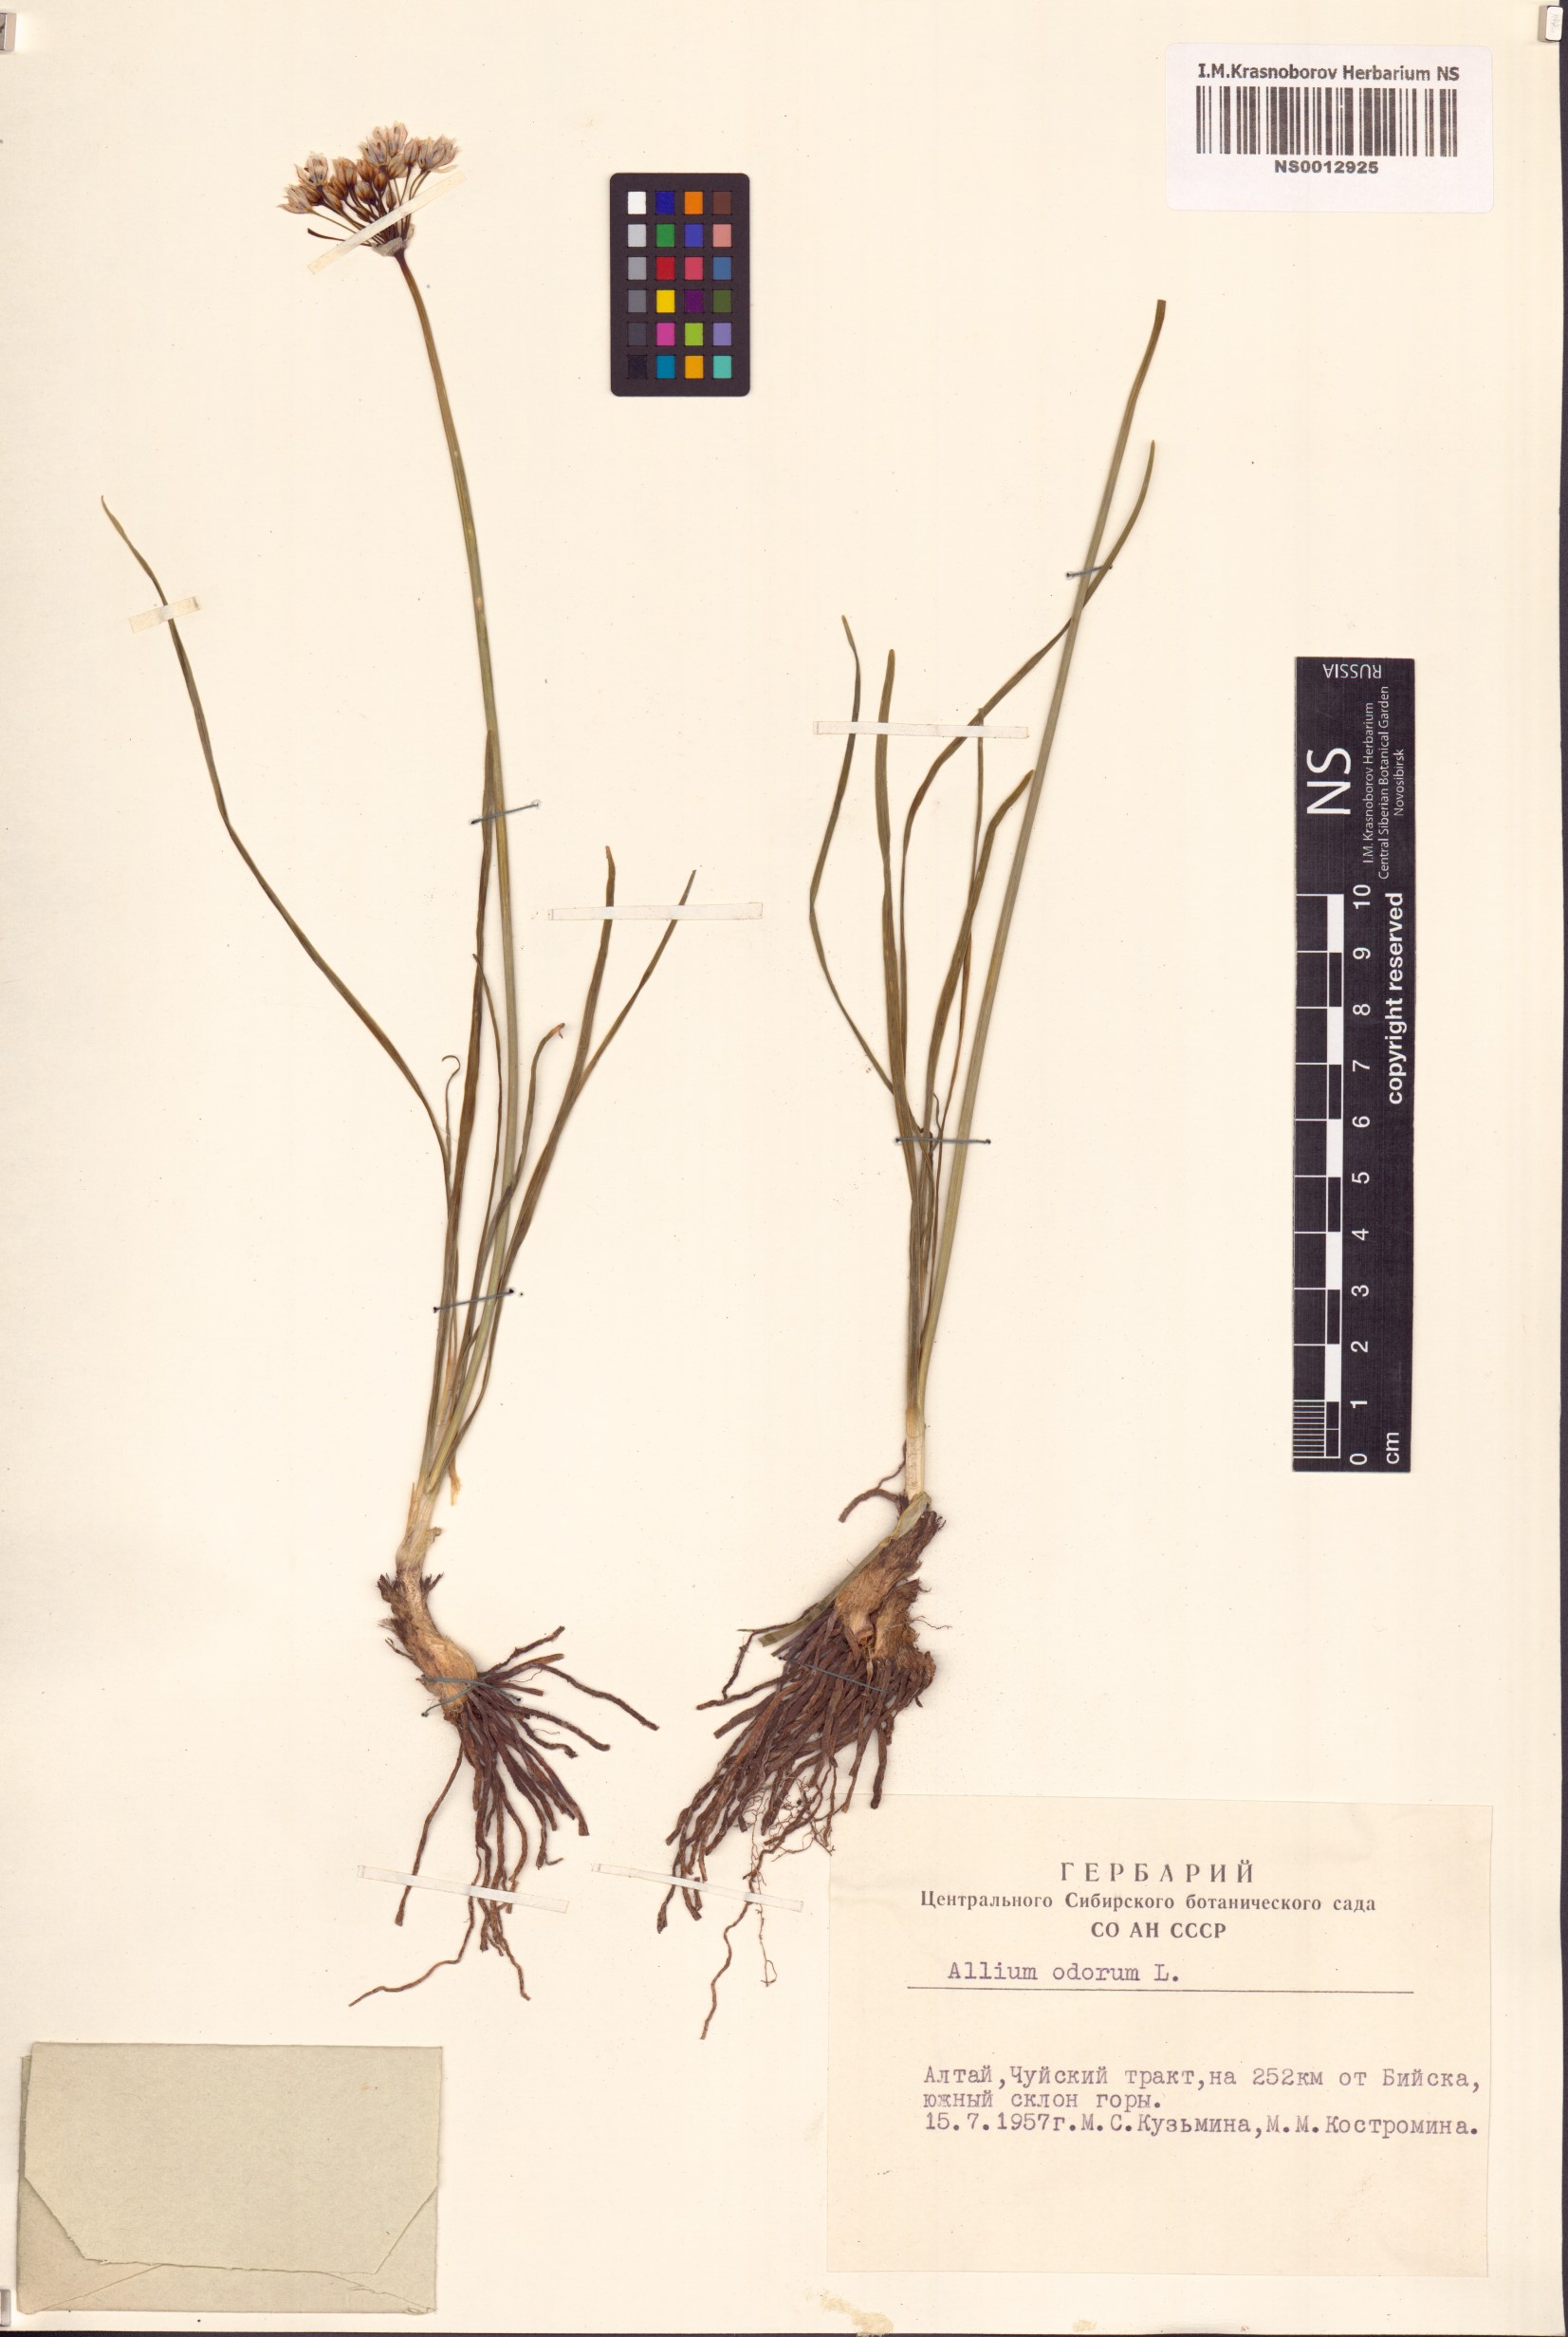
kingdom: Plantae
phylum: Tracheophyta
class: Liliopsida
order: Asparagales
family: Amaryllidaceae
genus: Allium
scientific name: Allium ramosum
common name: Fragrant garlic
